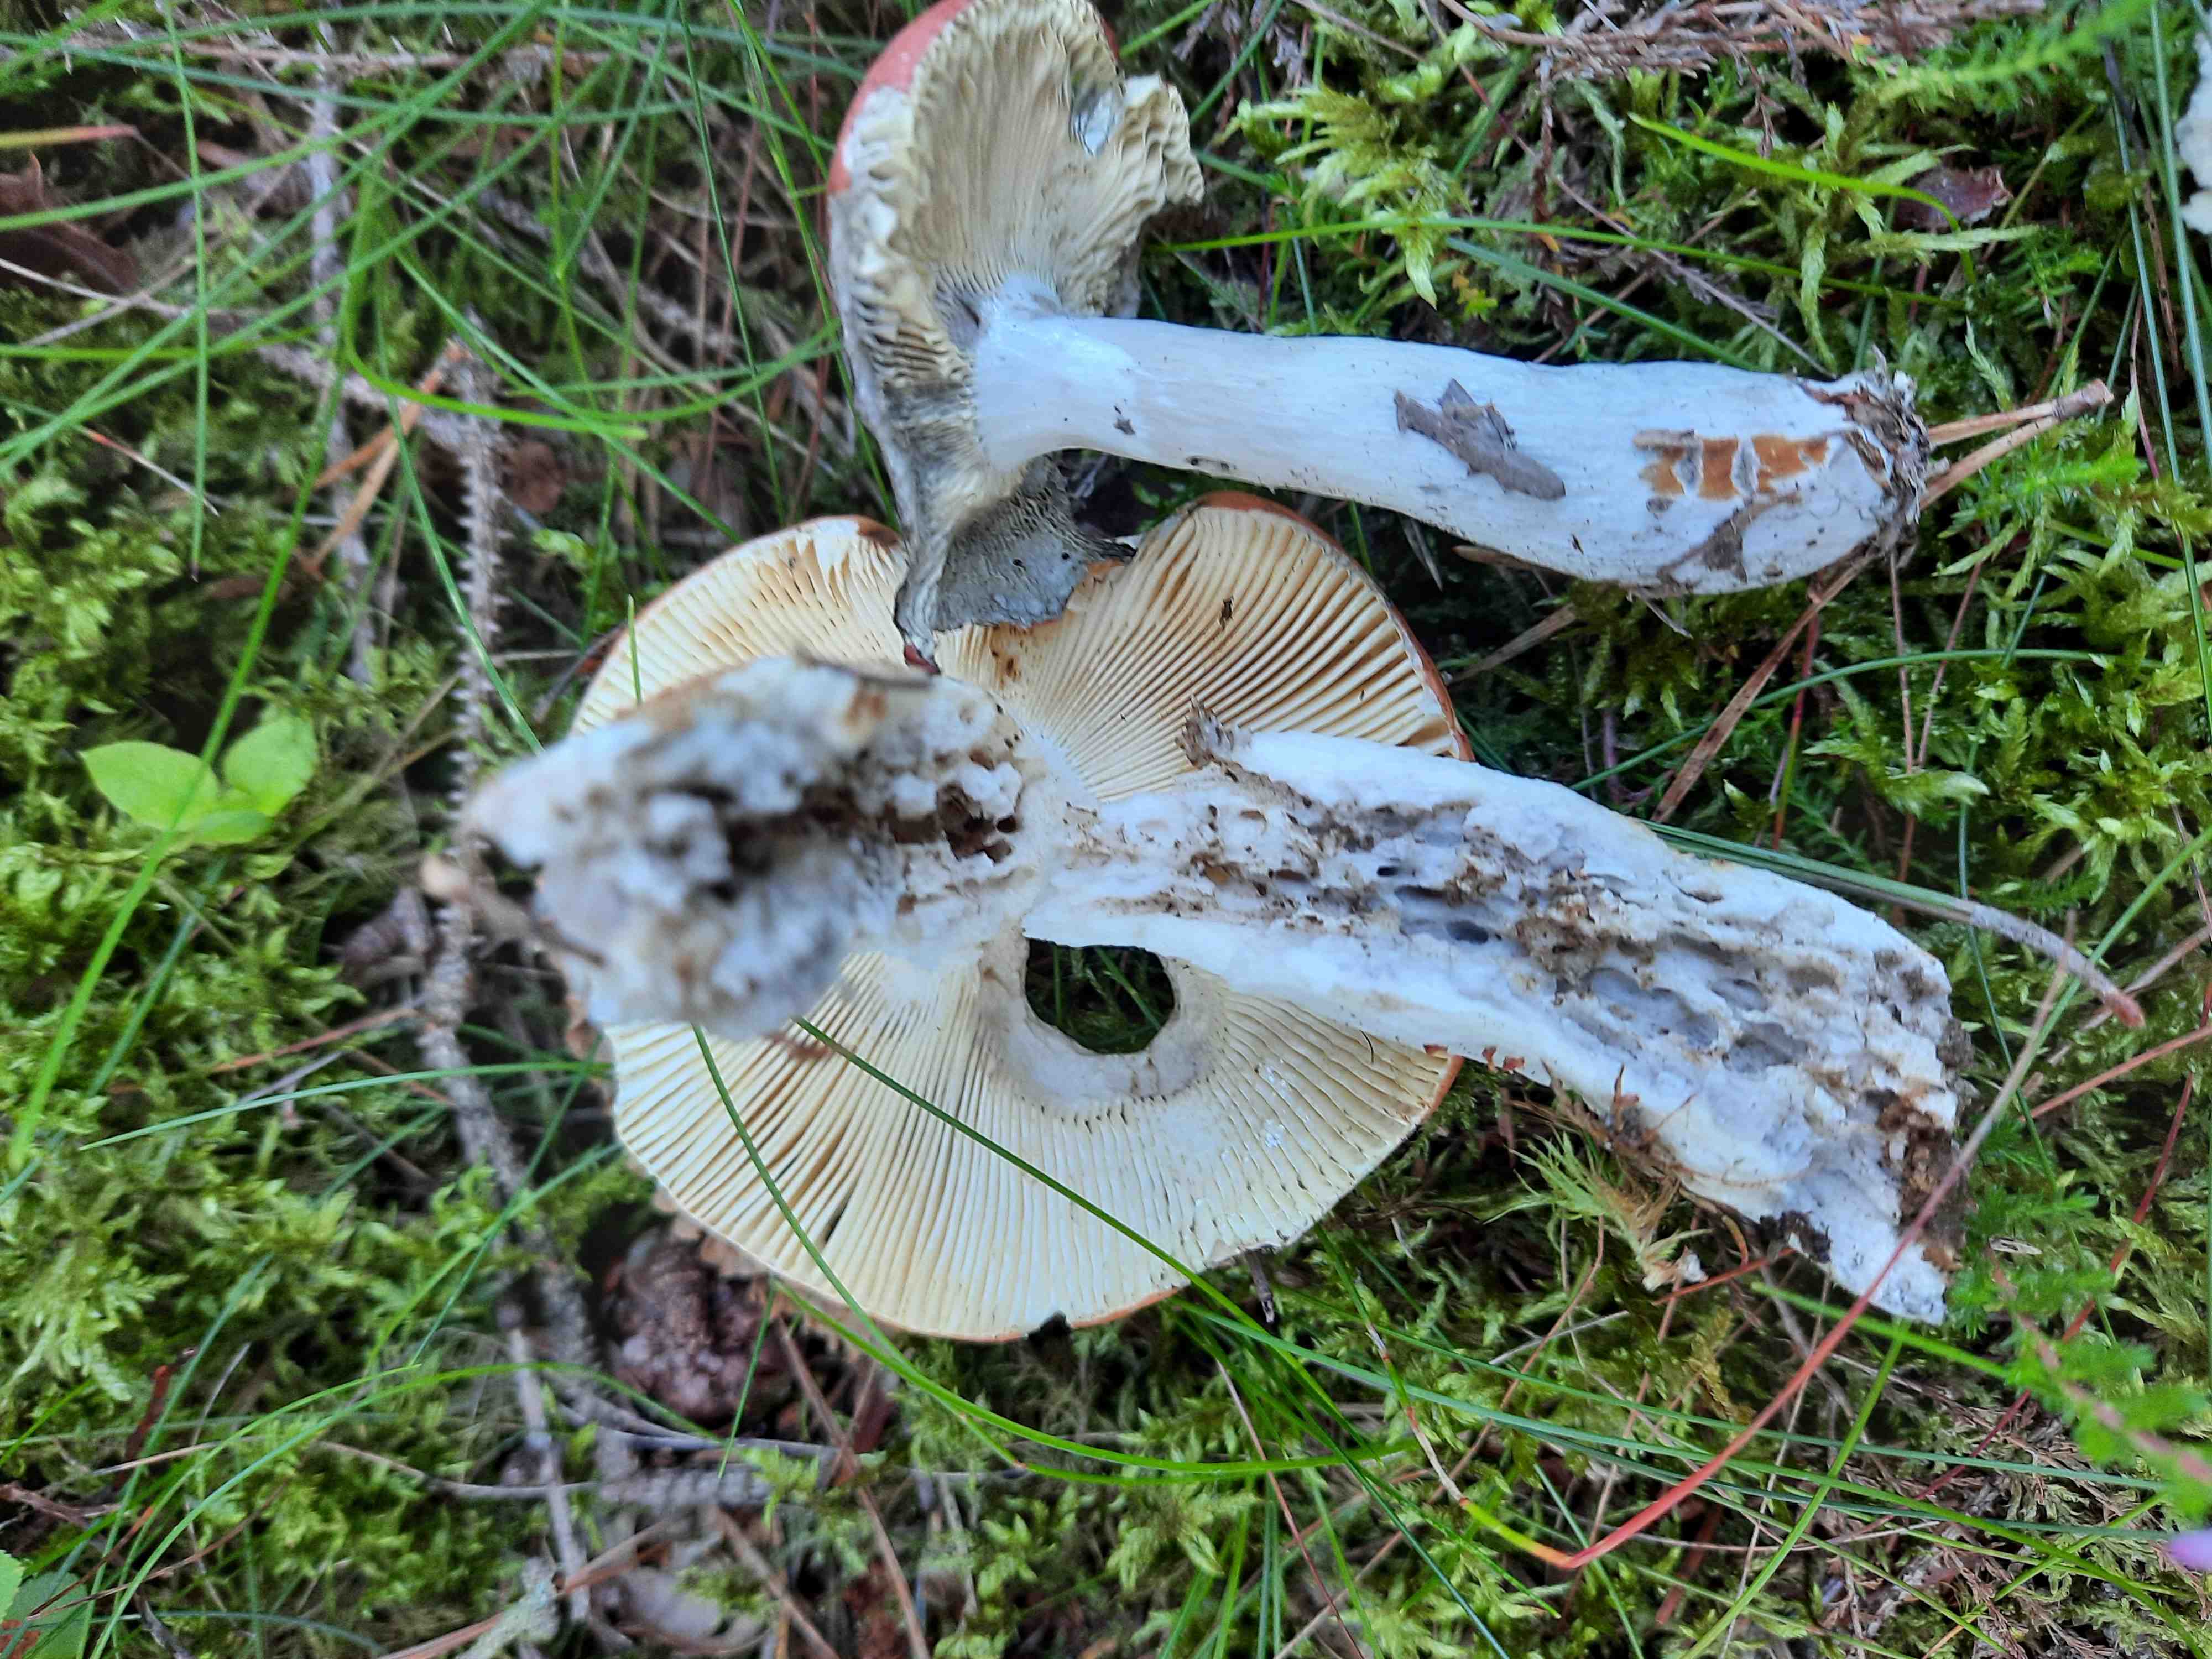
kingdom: Fungi
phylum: Basidiomycota
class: Agaricomycetes
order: Russulales
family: Russulaceae
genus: Russula
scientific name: Russula decolorans
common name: afblegende skørhat
